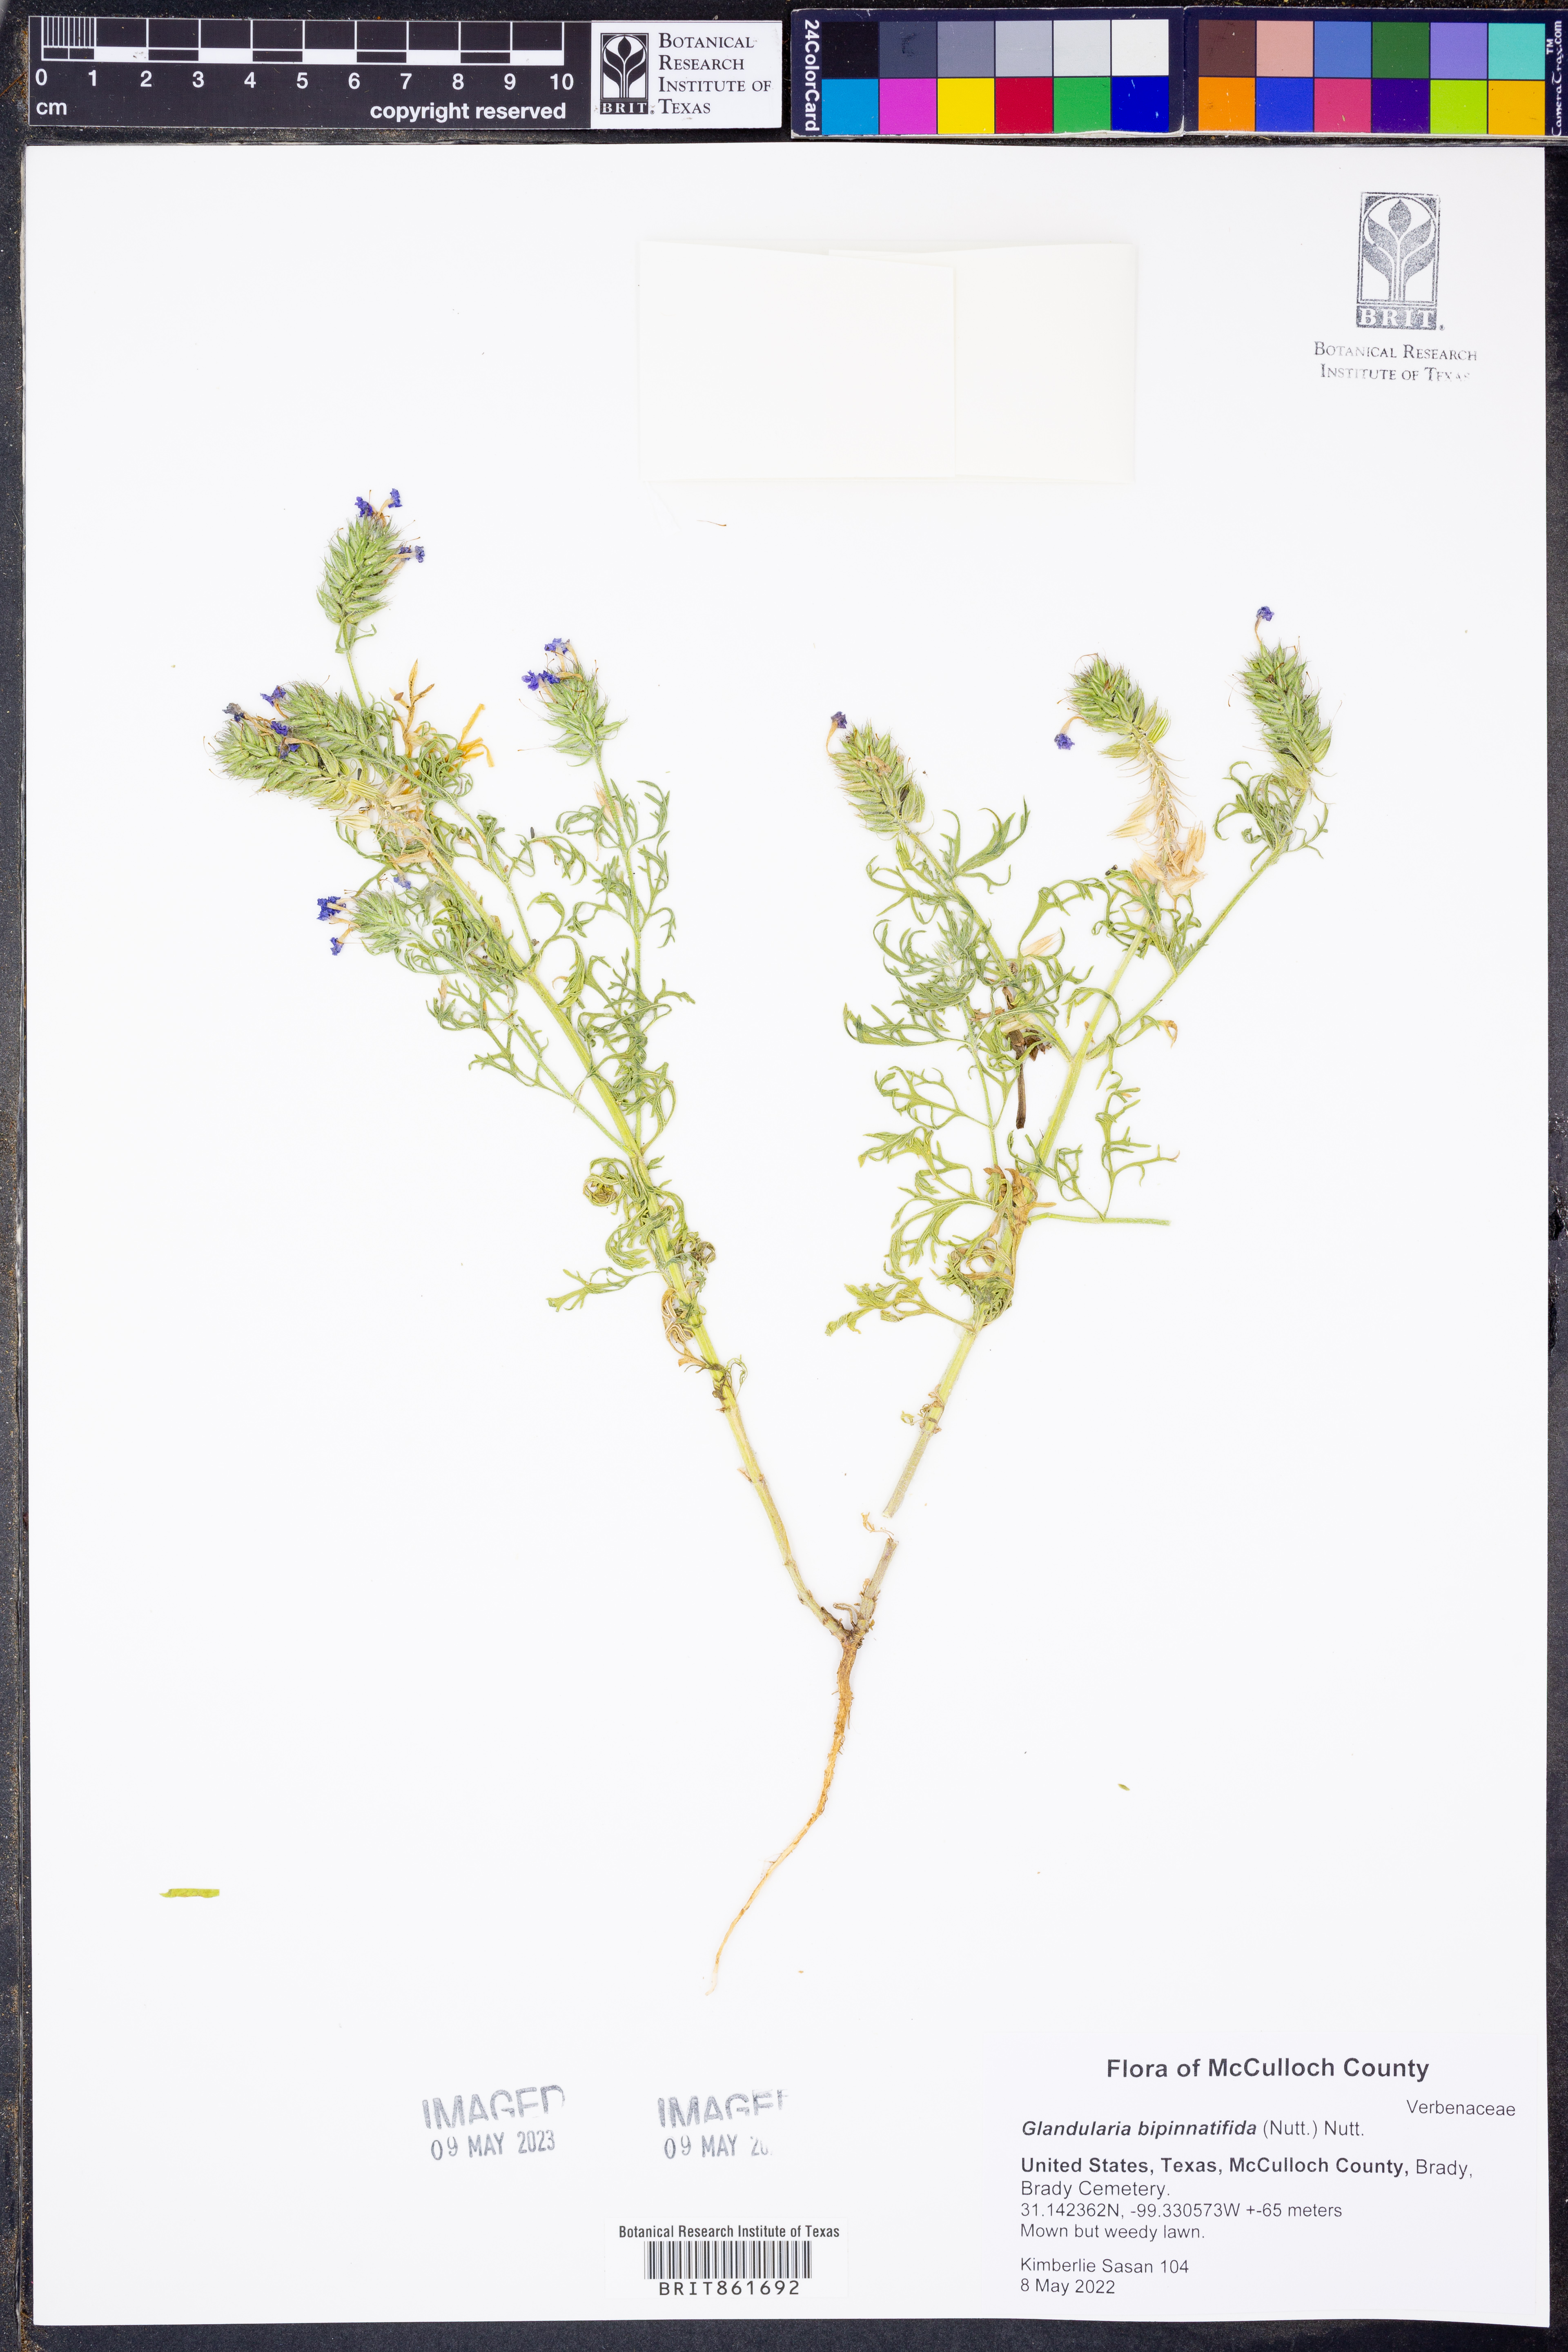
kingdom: Plantae
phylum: Tracheophyta
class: Magnoliopsida
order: Lamiales
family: Verbenaceae
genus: Verbena
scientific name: Verbena bipinnatifida
